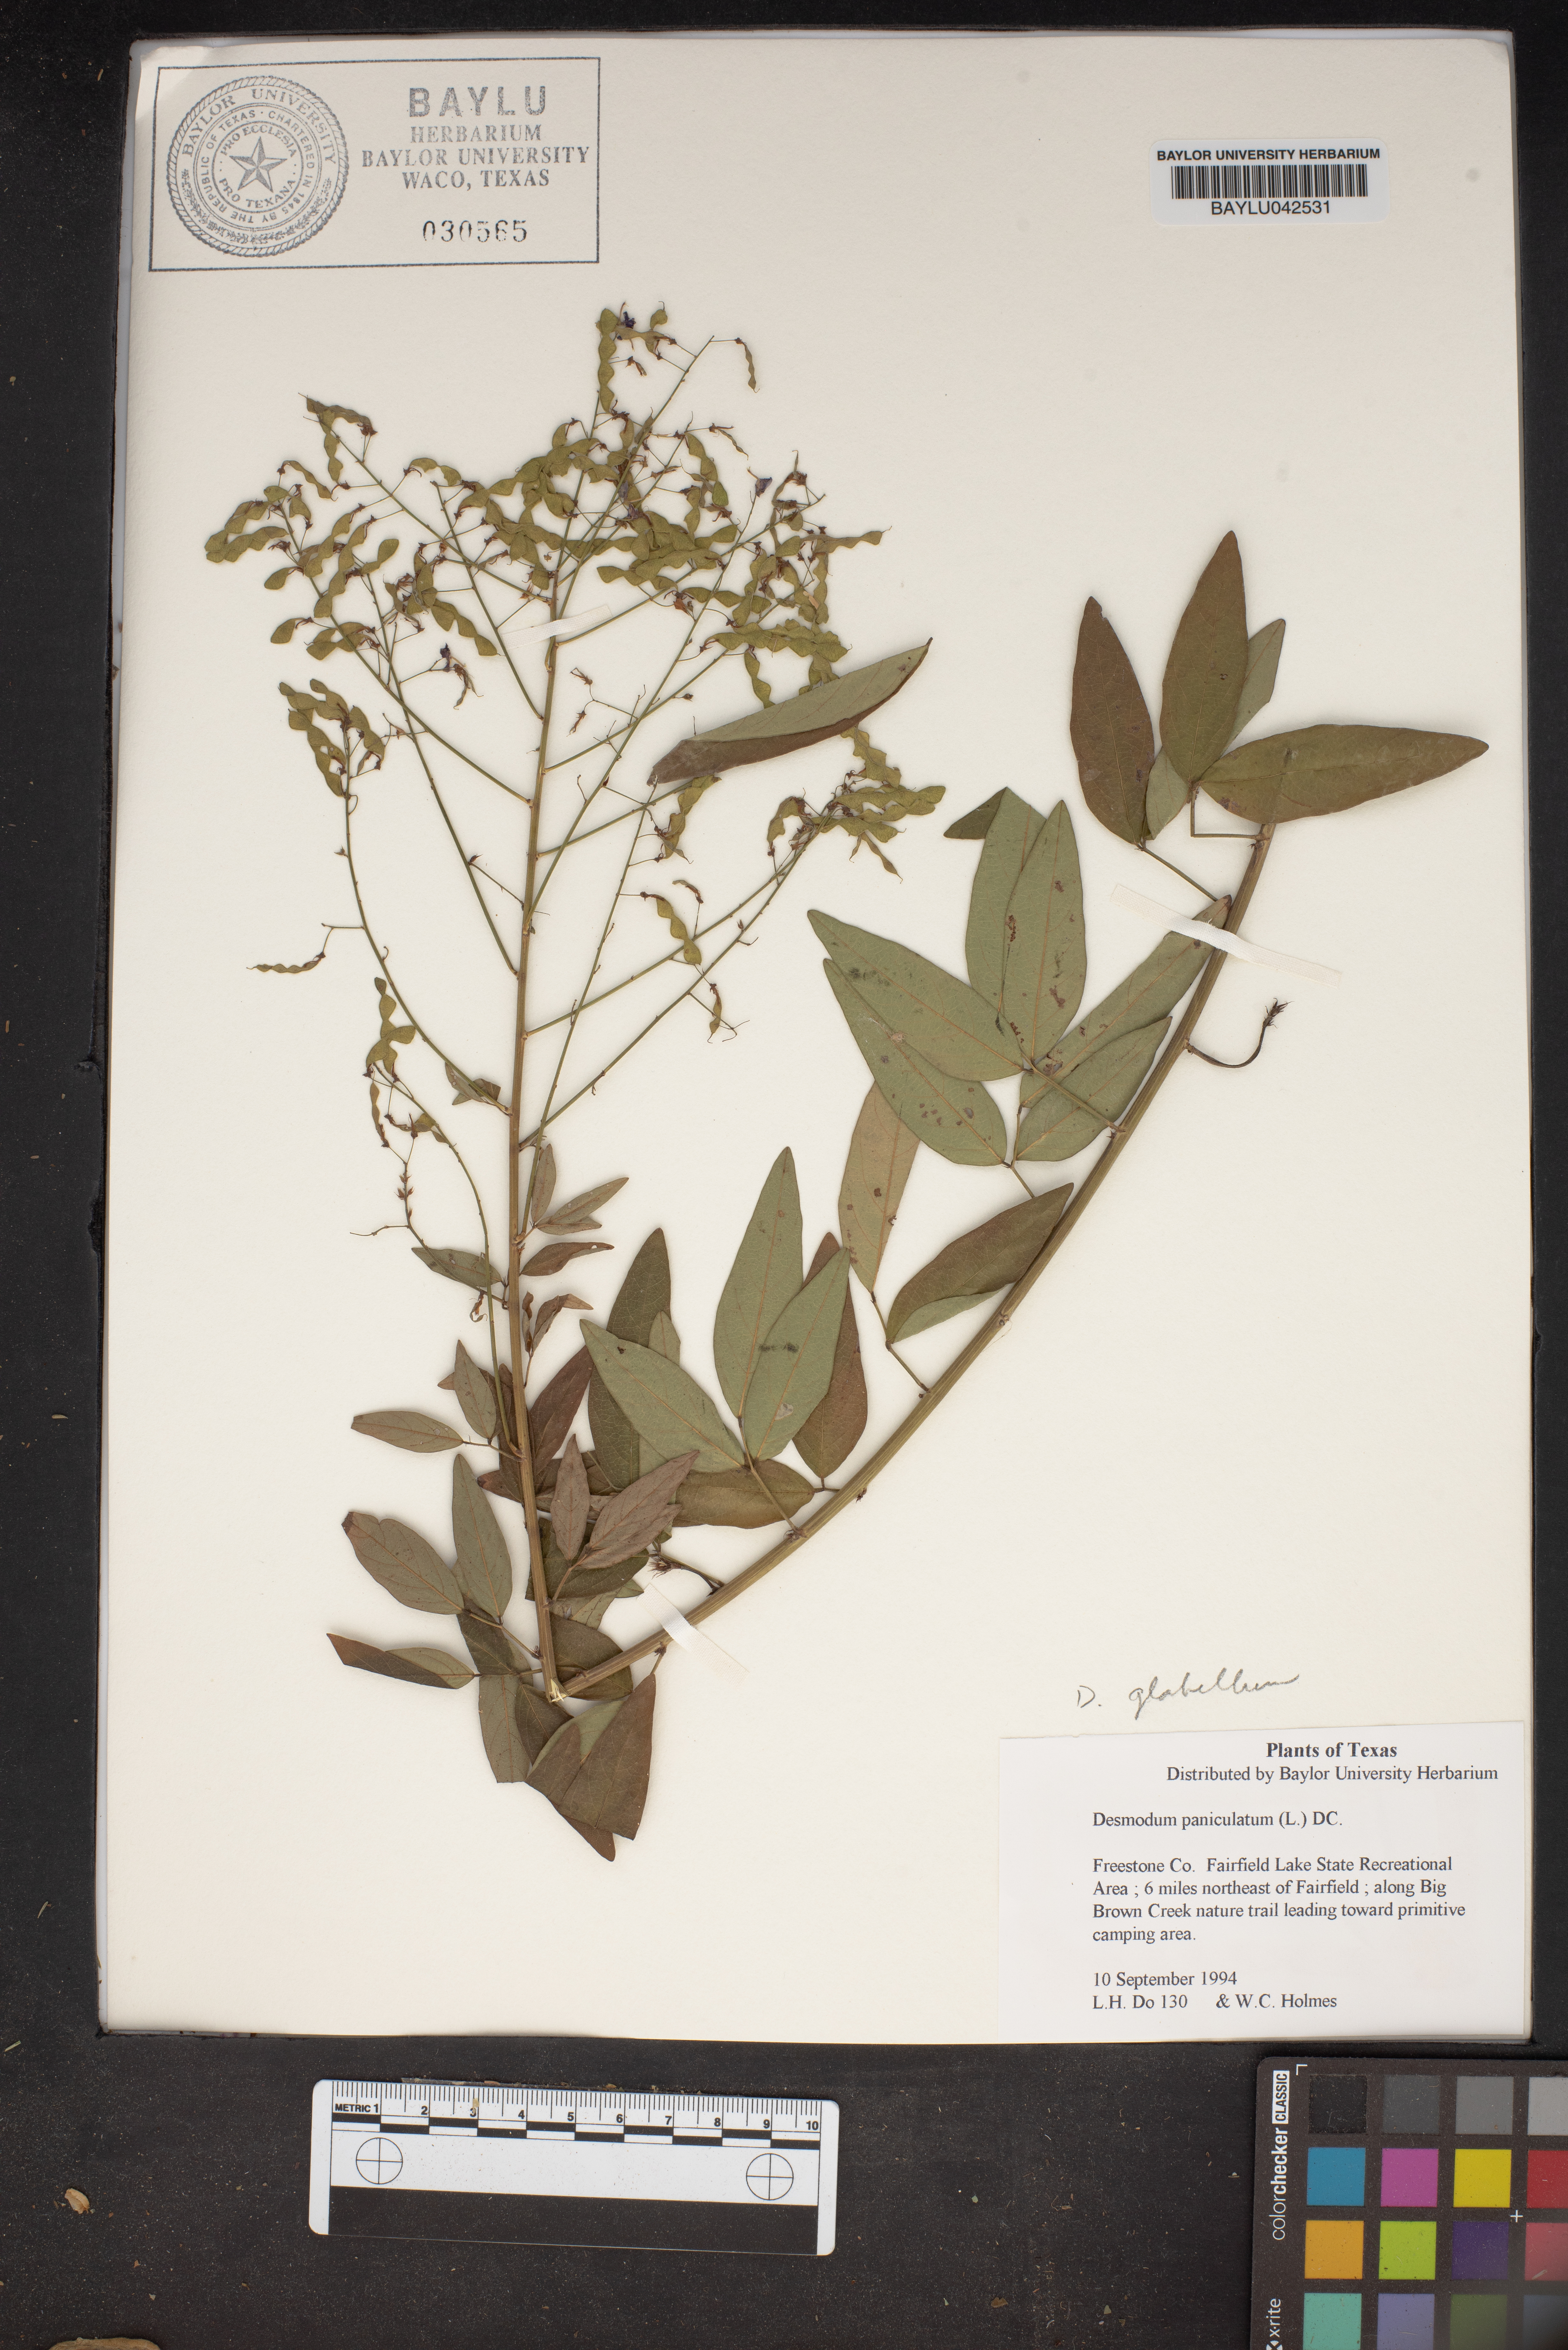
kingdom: Plantae
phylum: Tracheophyta
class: Magnoliopsida
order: Fabales
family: Fabaceae
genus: Desmodium
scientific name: Desmodium paniculatum
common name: Panicled tick-clover
